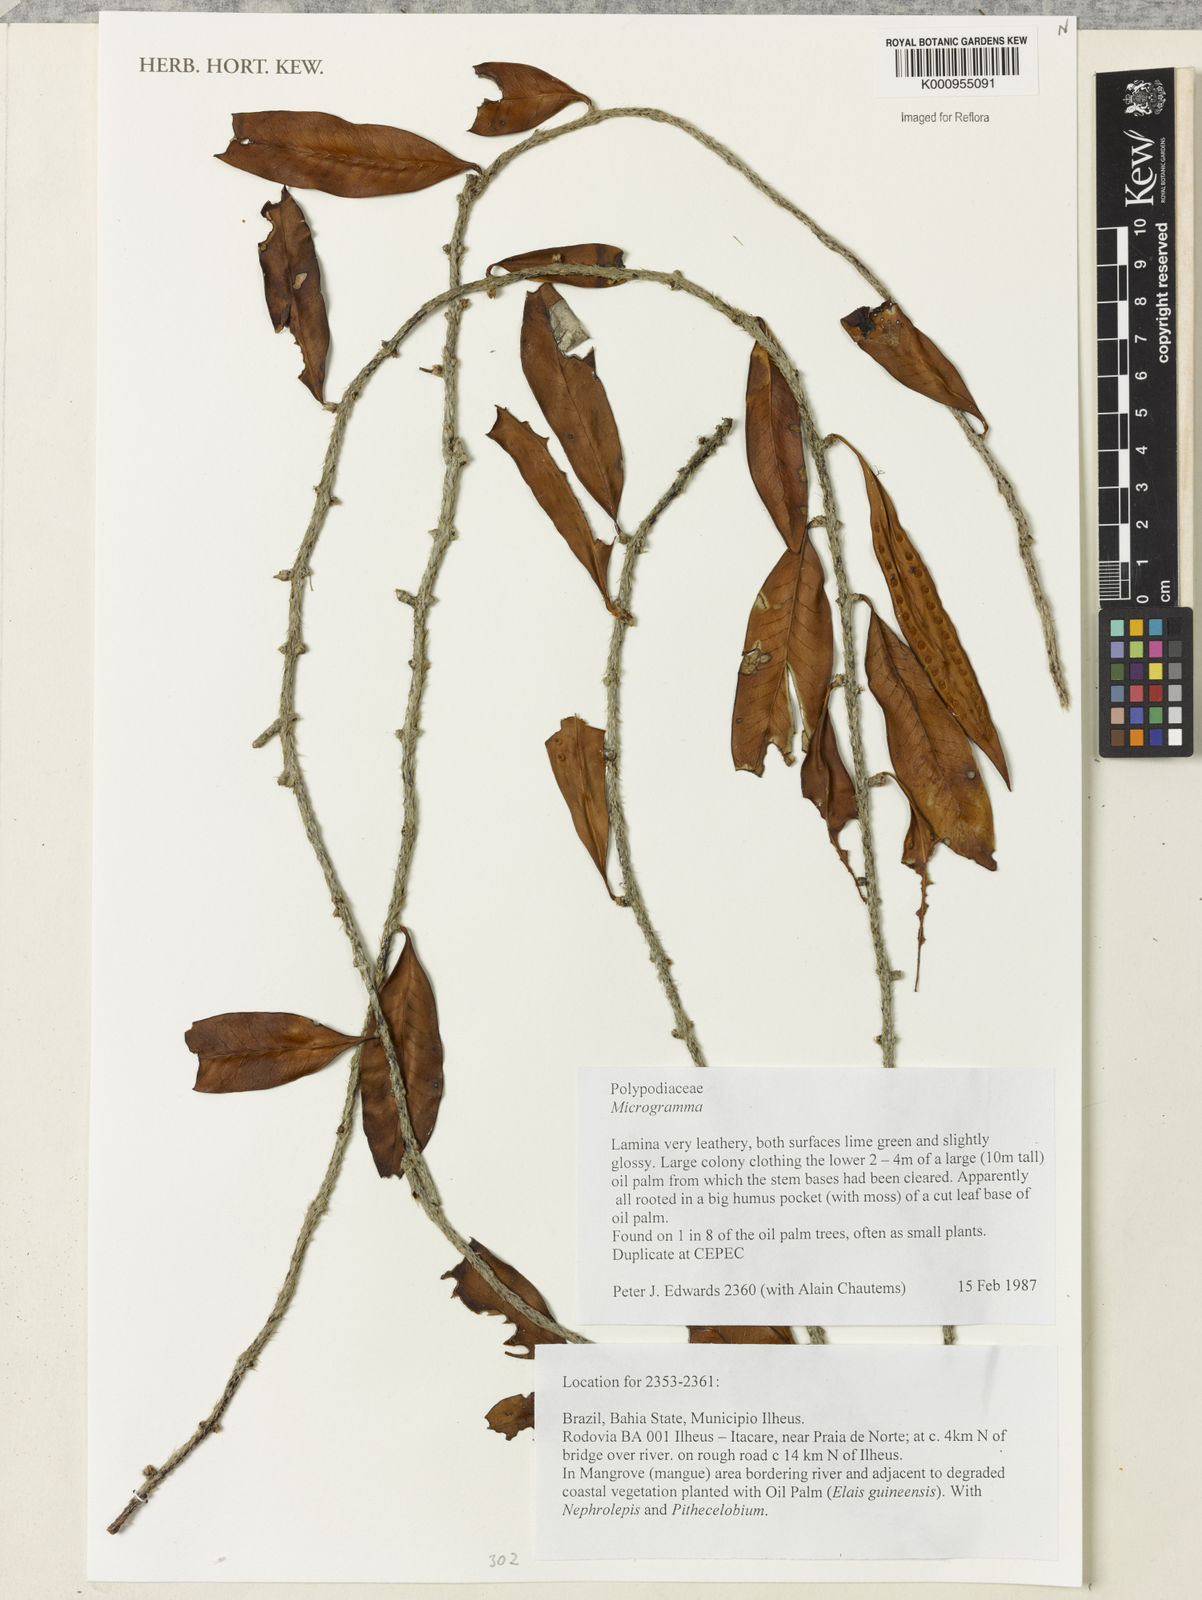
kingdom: Plantae
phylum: Tracheophyta
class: Polypodiopsida
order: Polypodiales
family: Polypodiaceae
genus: Microgramma
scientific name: Microgramma
